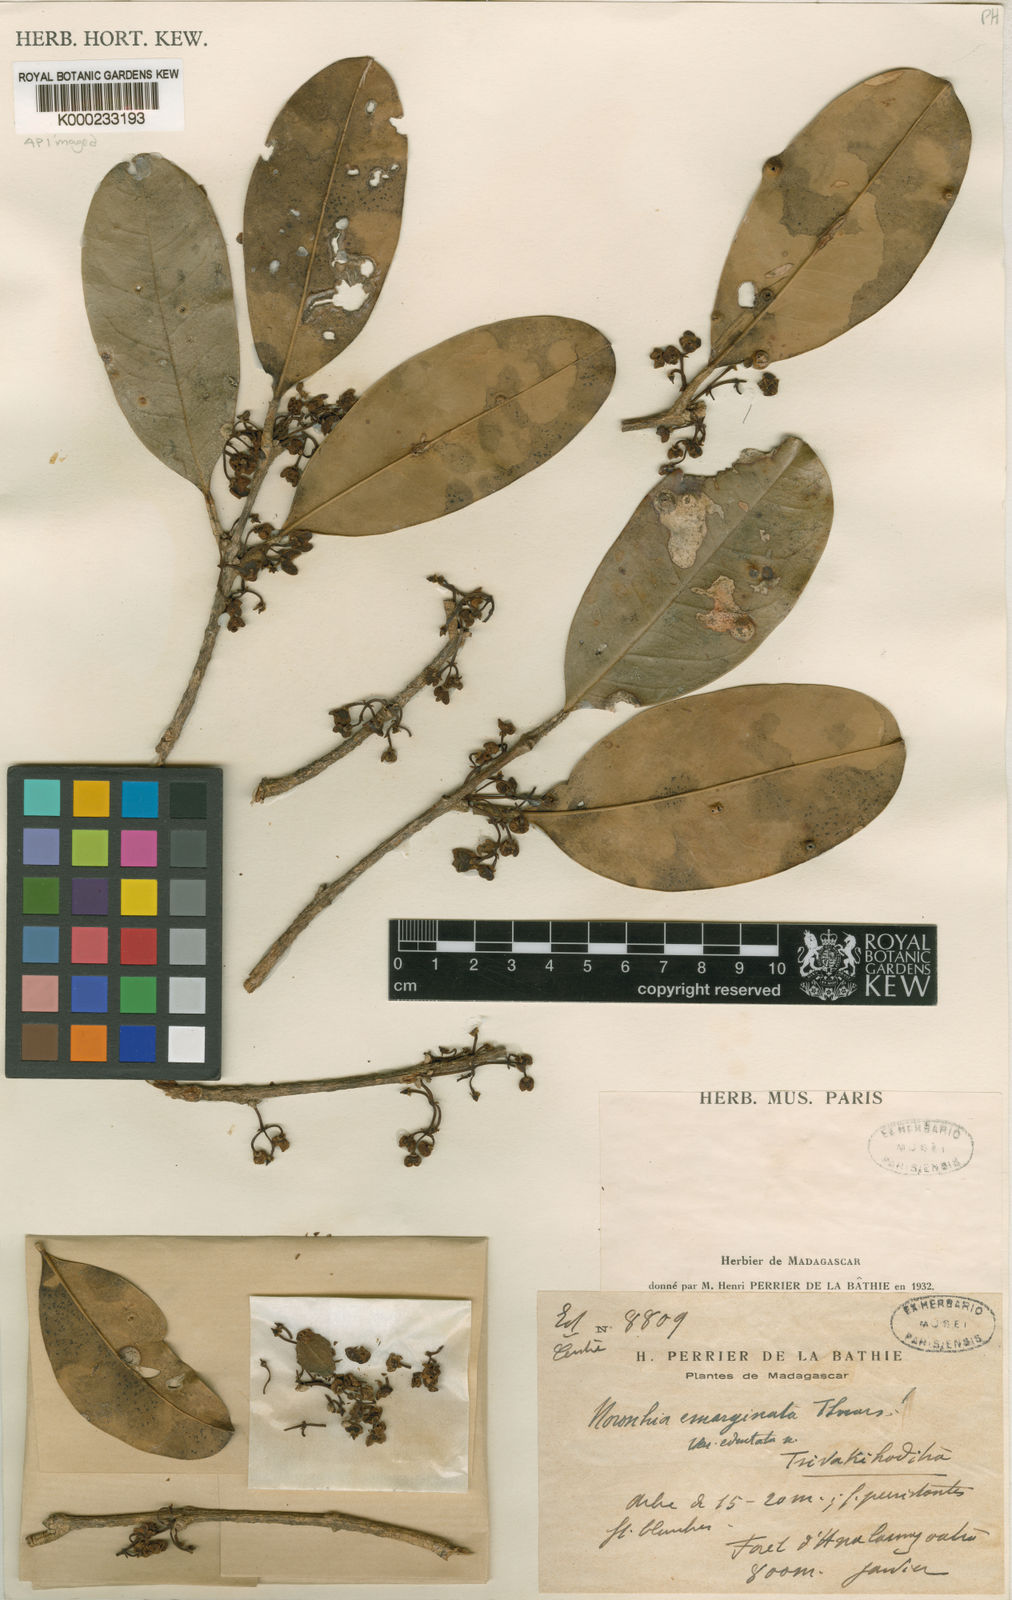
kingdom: Plantae
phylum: Tracheophyta
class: Magnoliopsida
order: Lamiales
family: Oleaceae
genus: Noronhia
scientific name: Noronhia edentata
